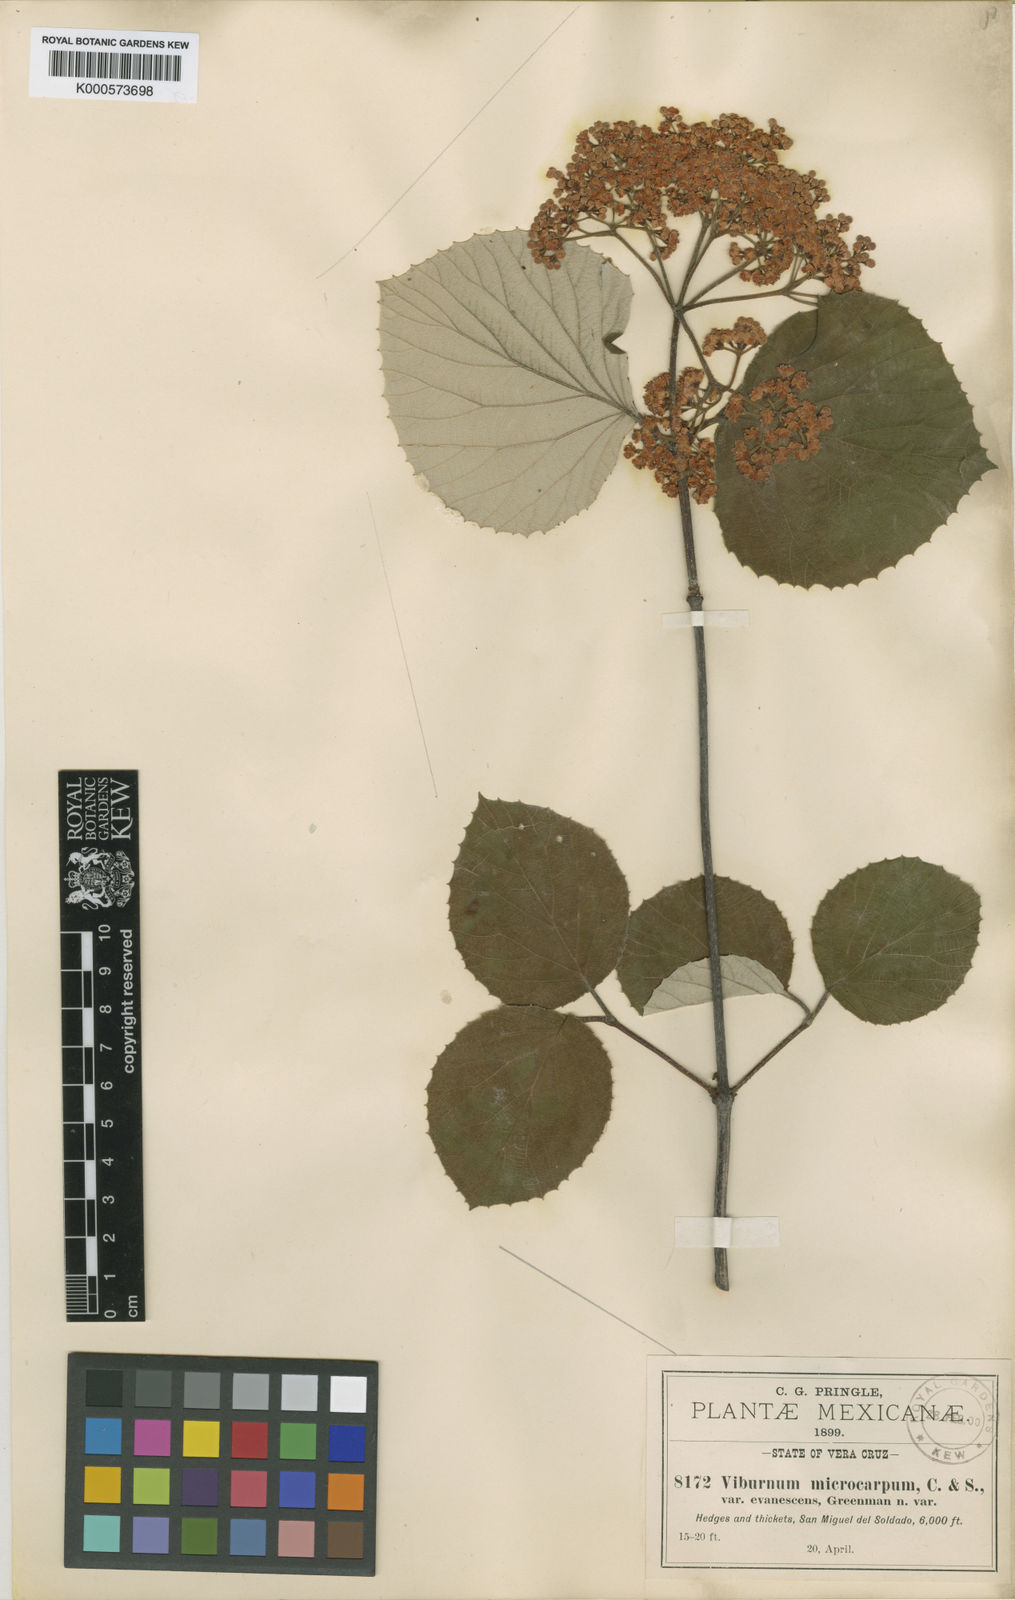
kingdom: Plantae
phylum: Tracheophyta
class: Magnoliopsida
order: Dipsacales
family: Viburnaceae
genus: Viburnum
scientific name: Viburnum microcarpum
